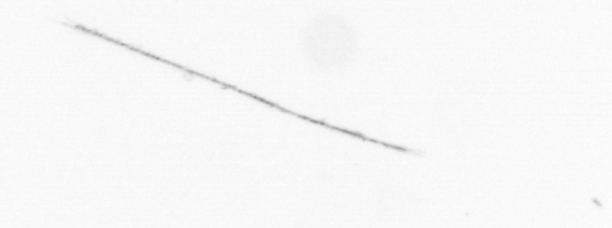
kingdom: Chromista
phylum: Ochrophyta
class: Bacillariophyceae
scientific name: Bacillariophyceae
